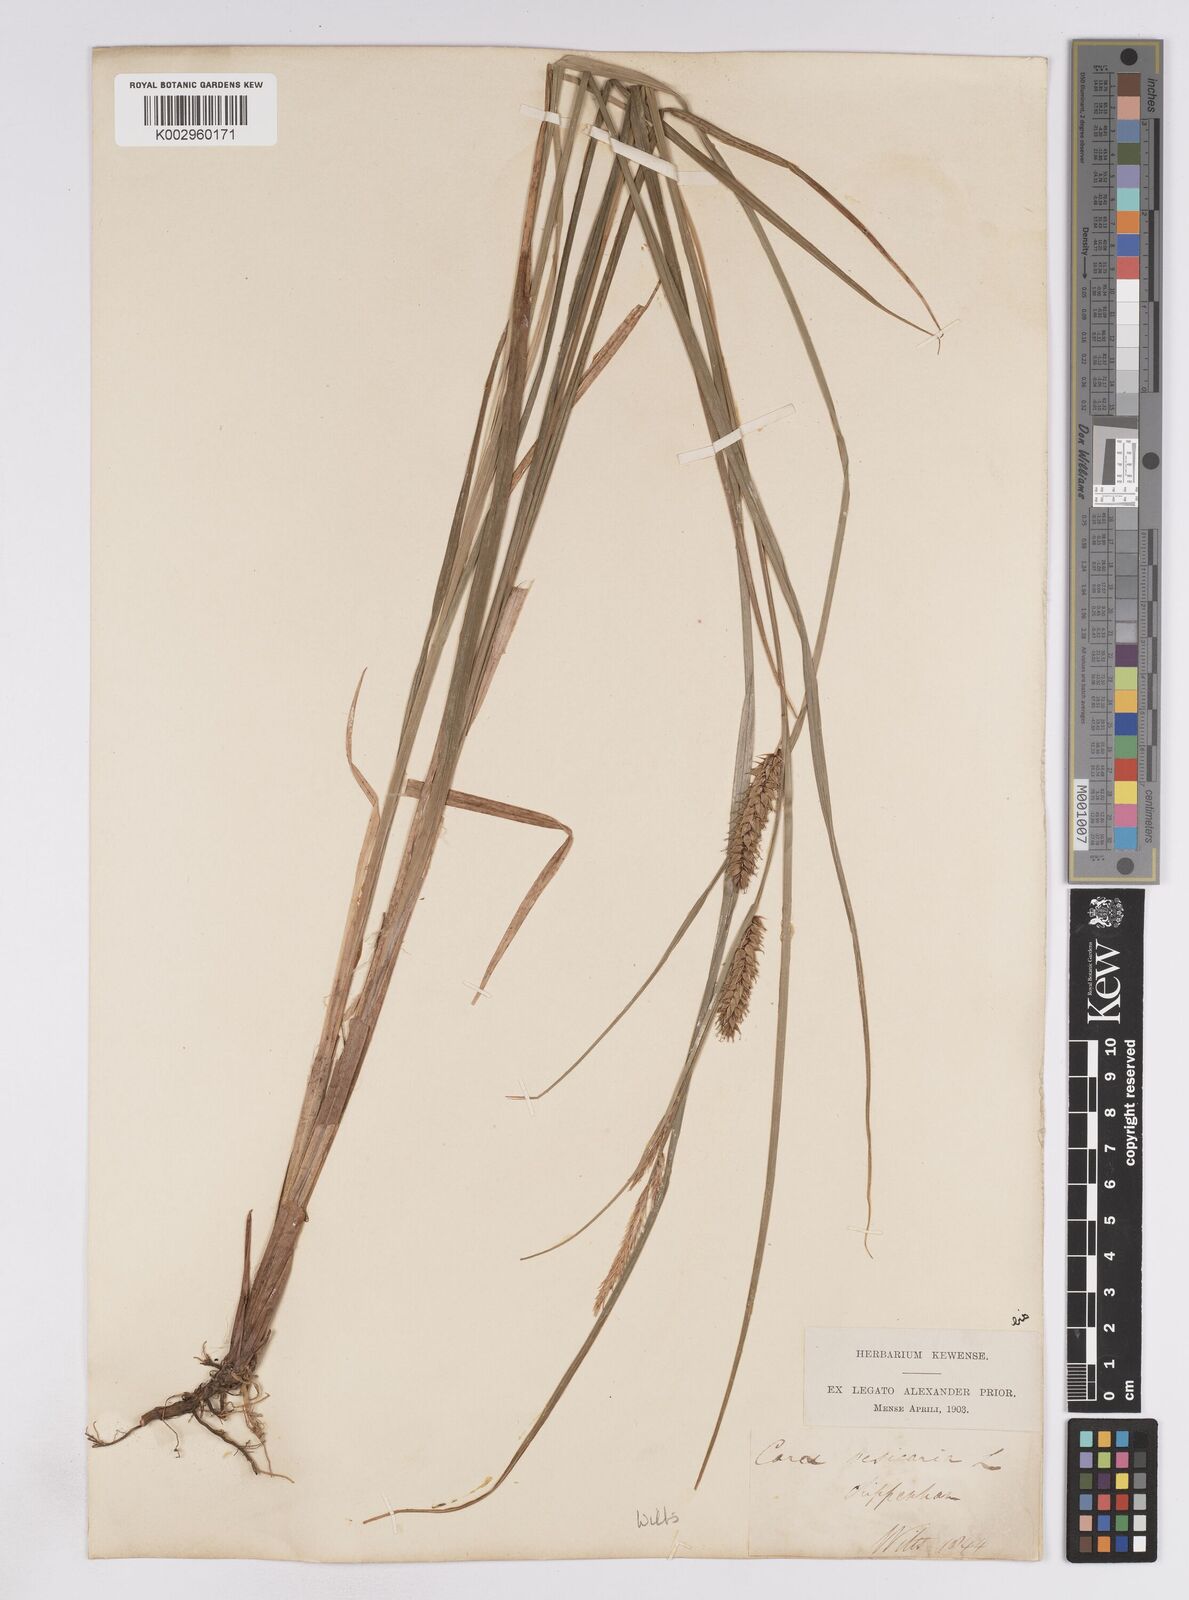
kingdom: Plantae
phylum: Tracheophyta
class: Liliopsida
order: Poales
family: Cyperaceae
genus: Carex
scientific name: Carex vesicaria
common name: Bladder-sedge
